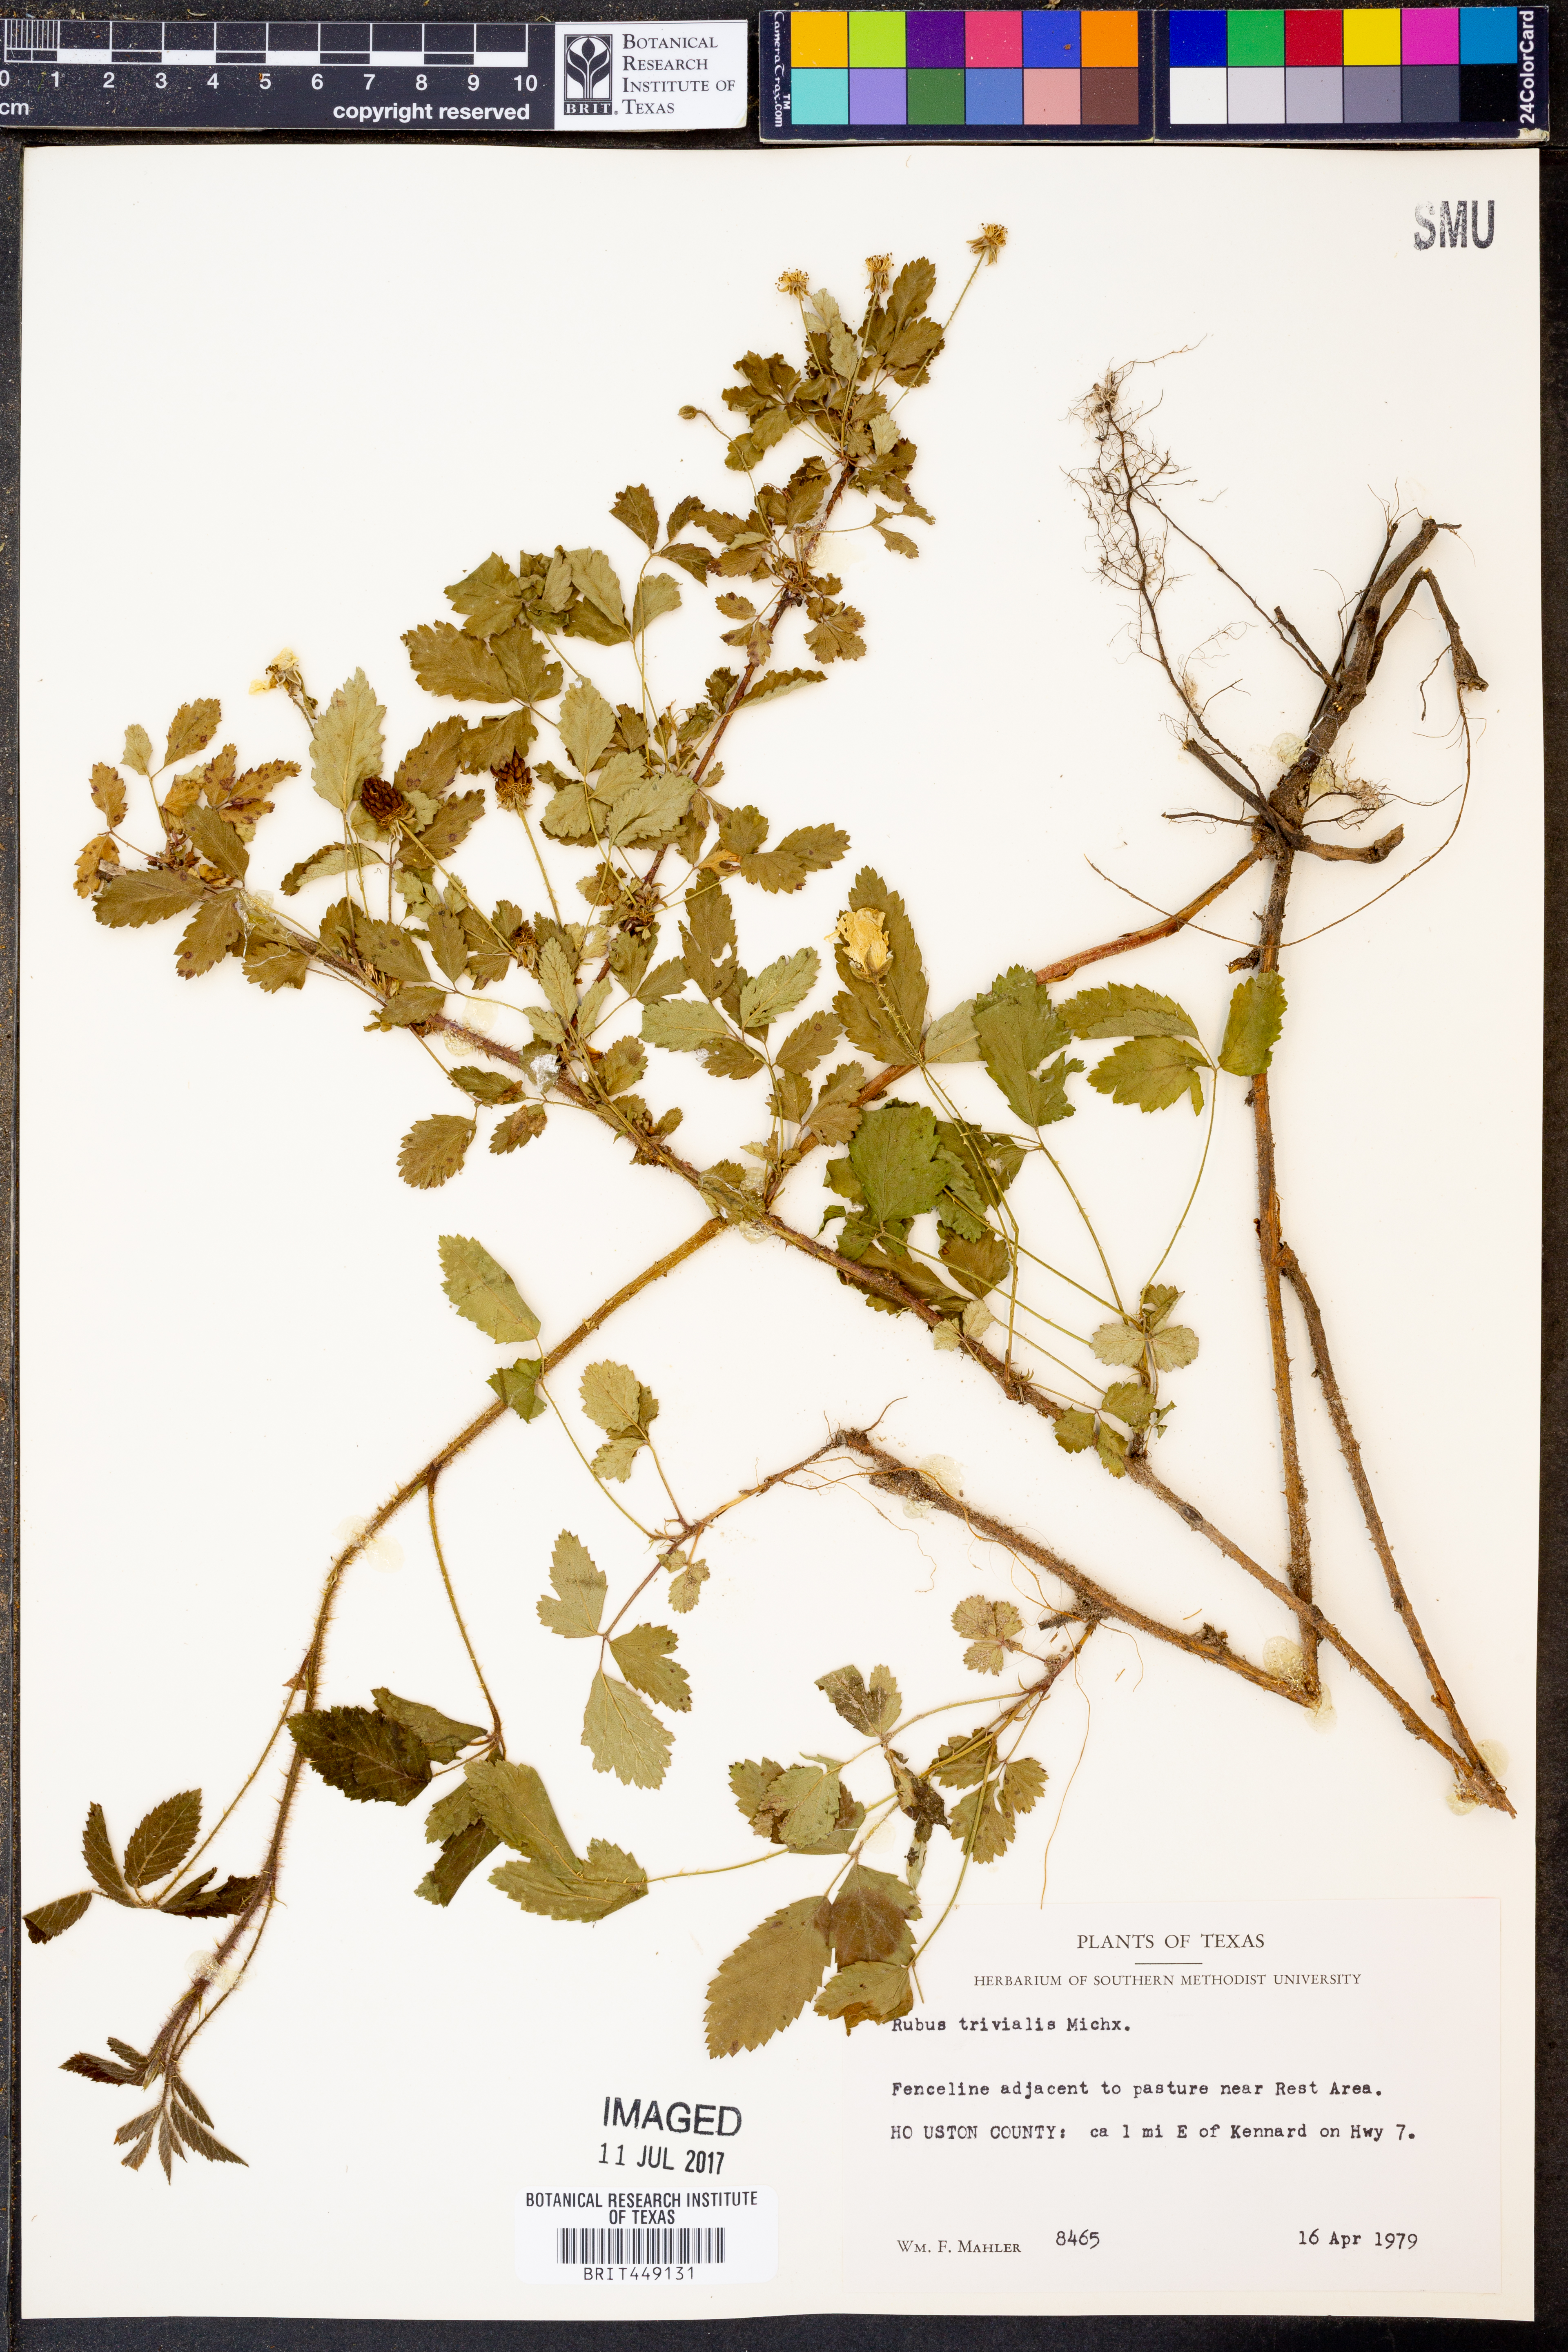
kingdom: Plantae
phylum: Tracheophyta
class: Magnoliopsida
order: Rosales
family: Rosaceae
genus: Rubus
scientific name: Rubus trivialis
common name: Southern dewberry
